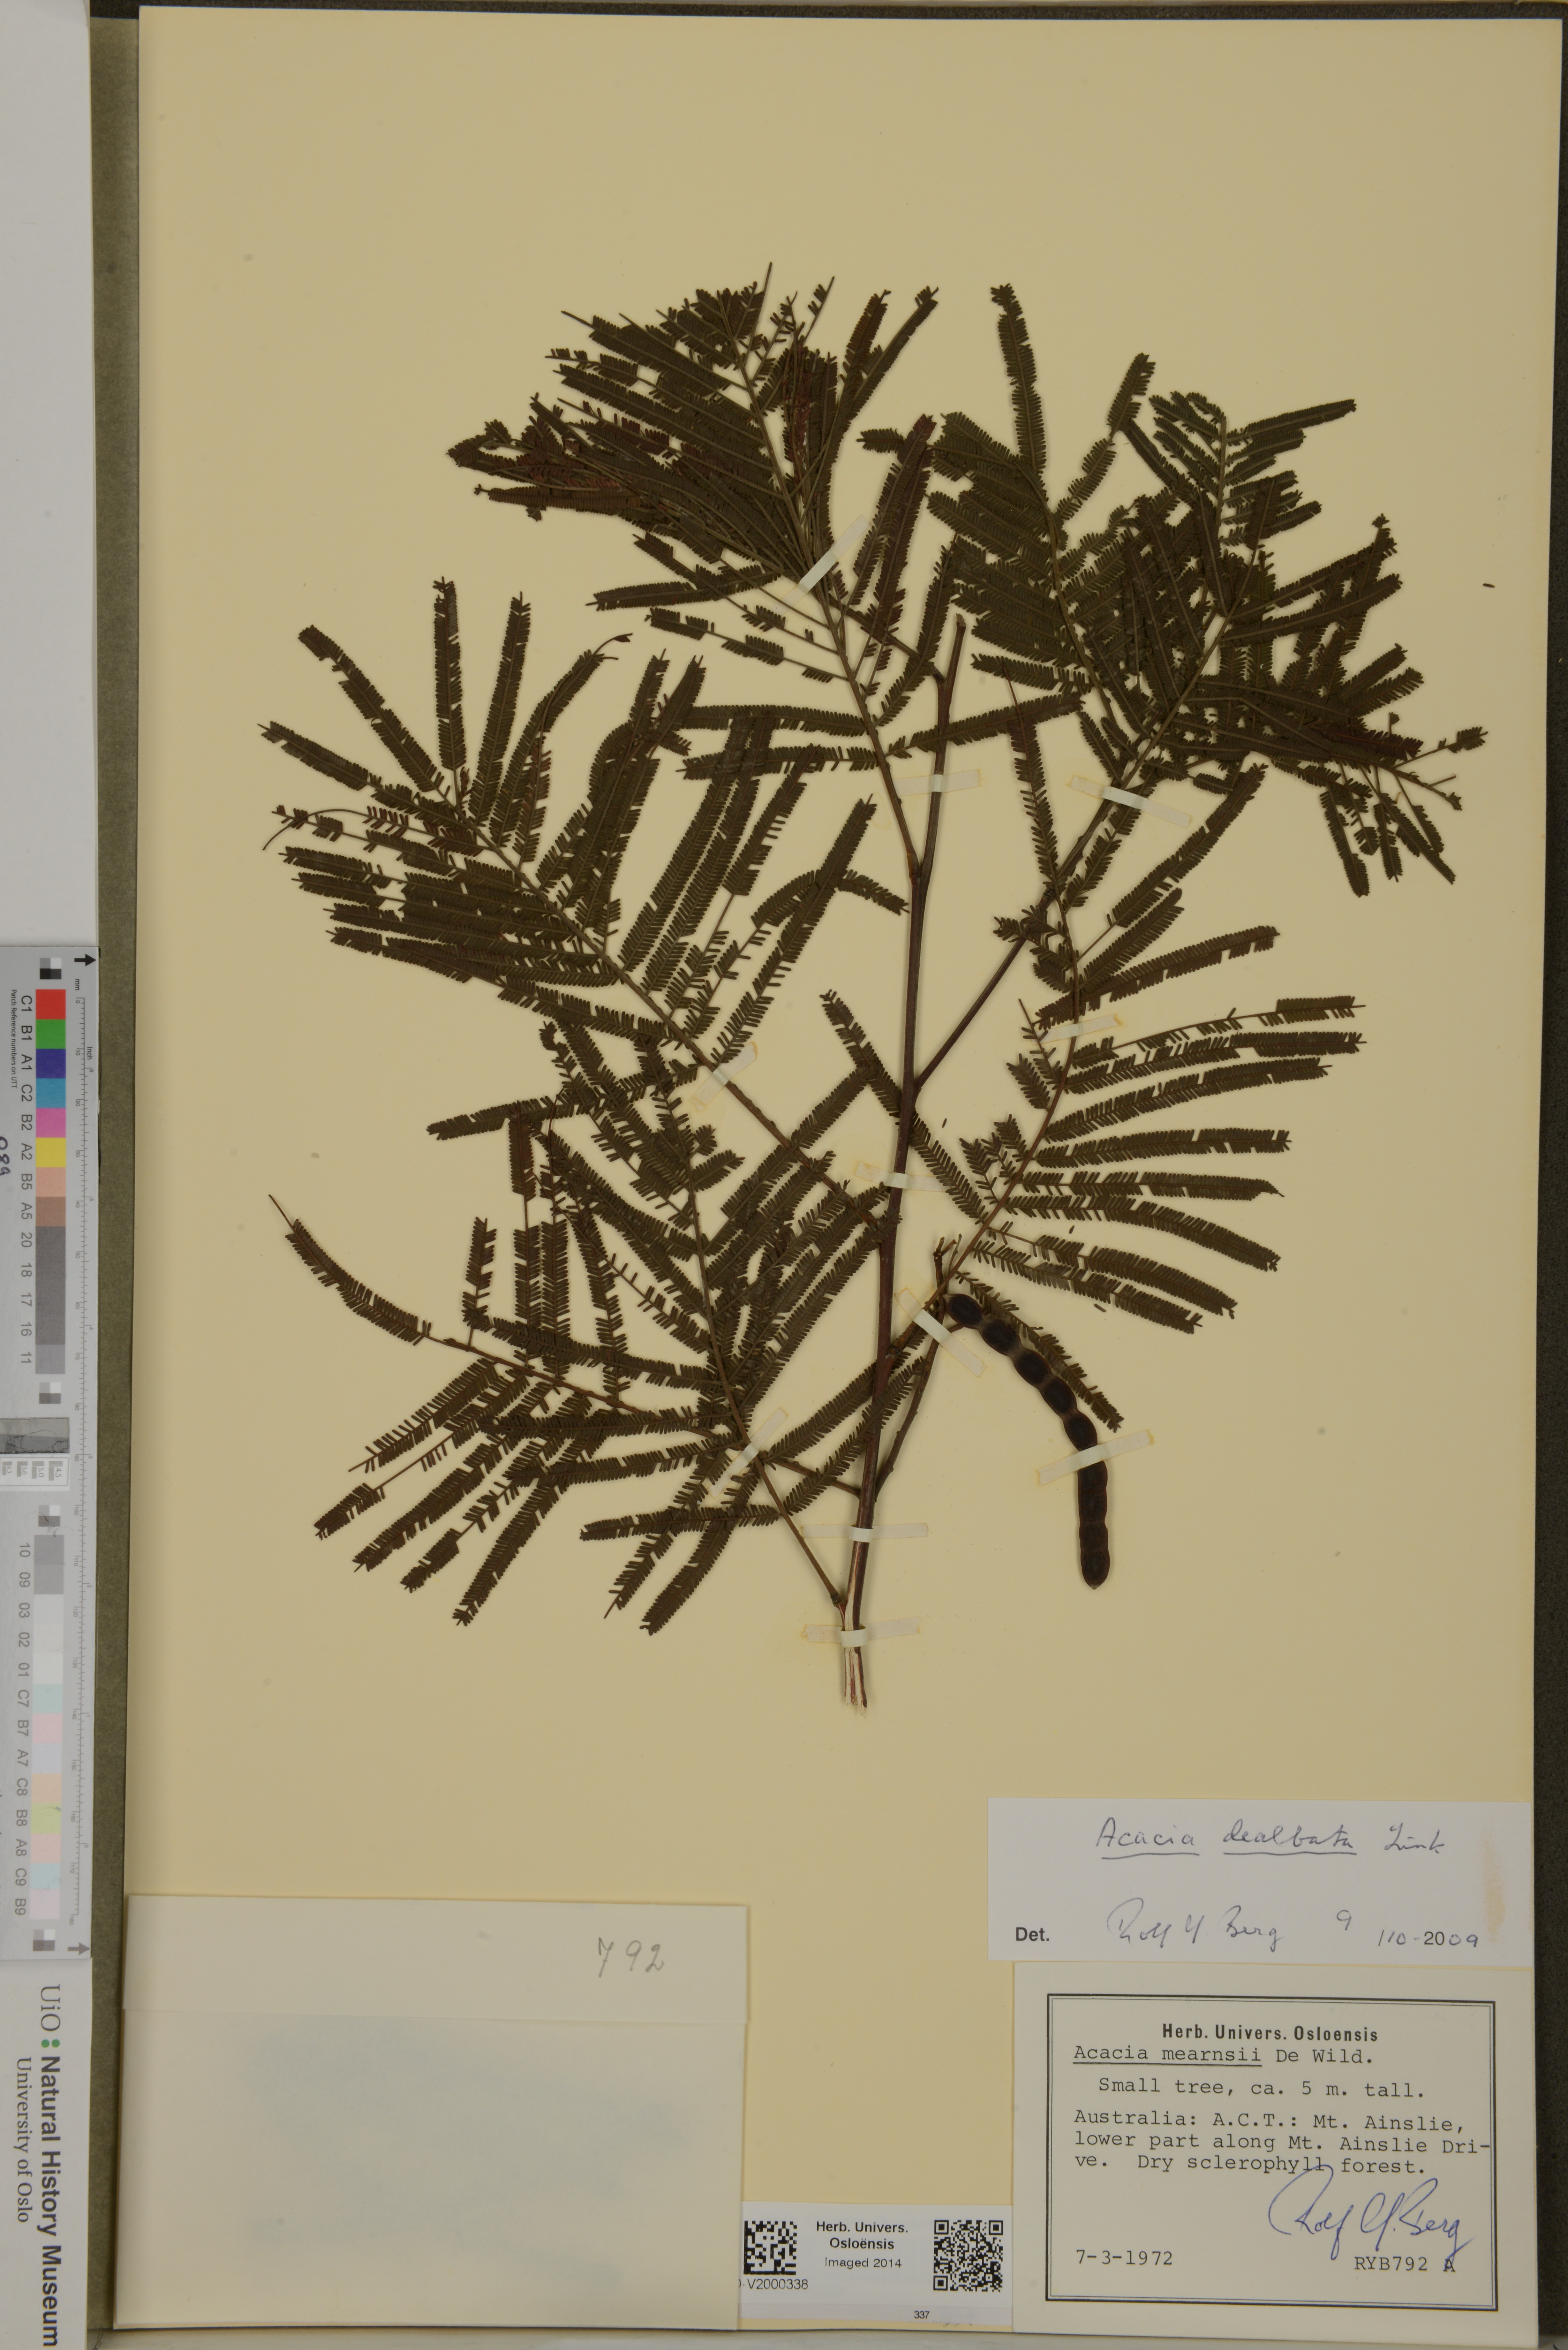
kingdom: Plantae
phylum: Tracheophyta
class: Magnoliopsida
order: Fabales
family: Fabaceae
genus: Acacia
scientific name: Acacia dealbata
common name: Silver wattle
